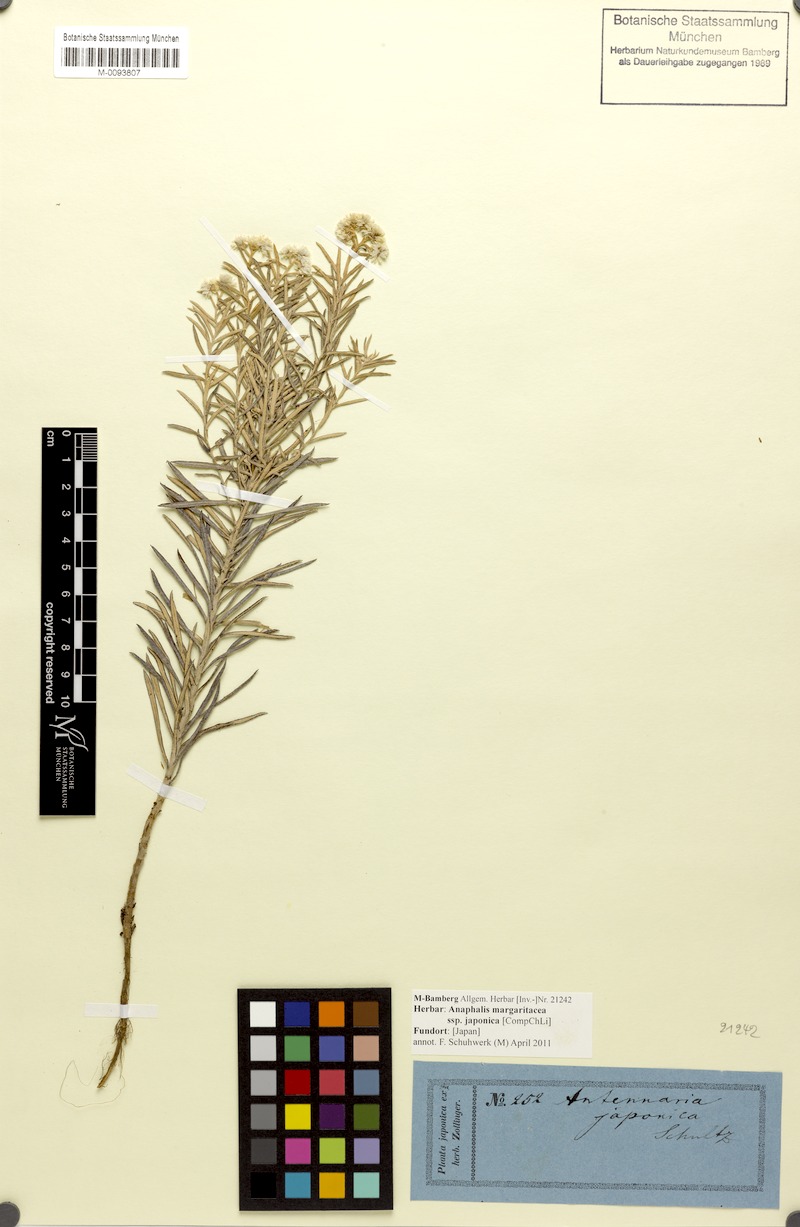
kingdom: Plantae
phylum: Tracheophyta
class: Magnoliopsida
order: Asterales
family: Asteraceae
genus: Anaphalis
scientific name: Anaphalis margaritacea
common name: Pearly everlasting
